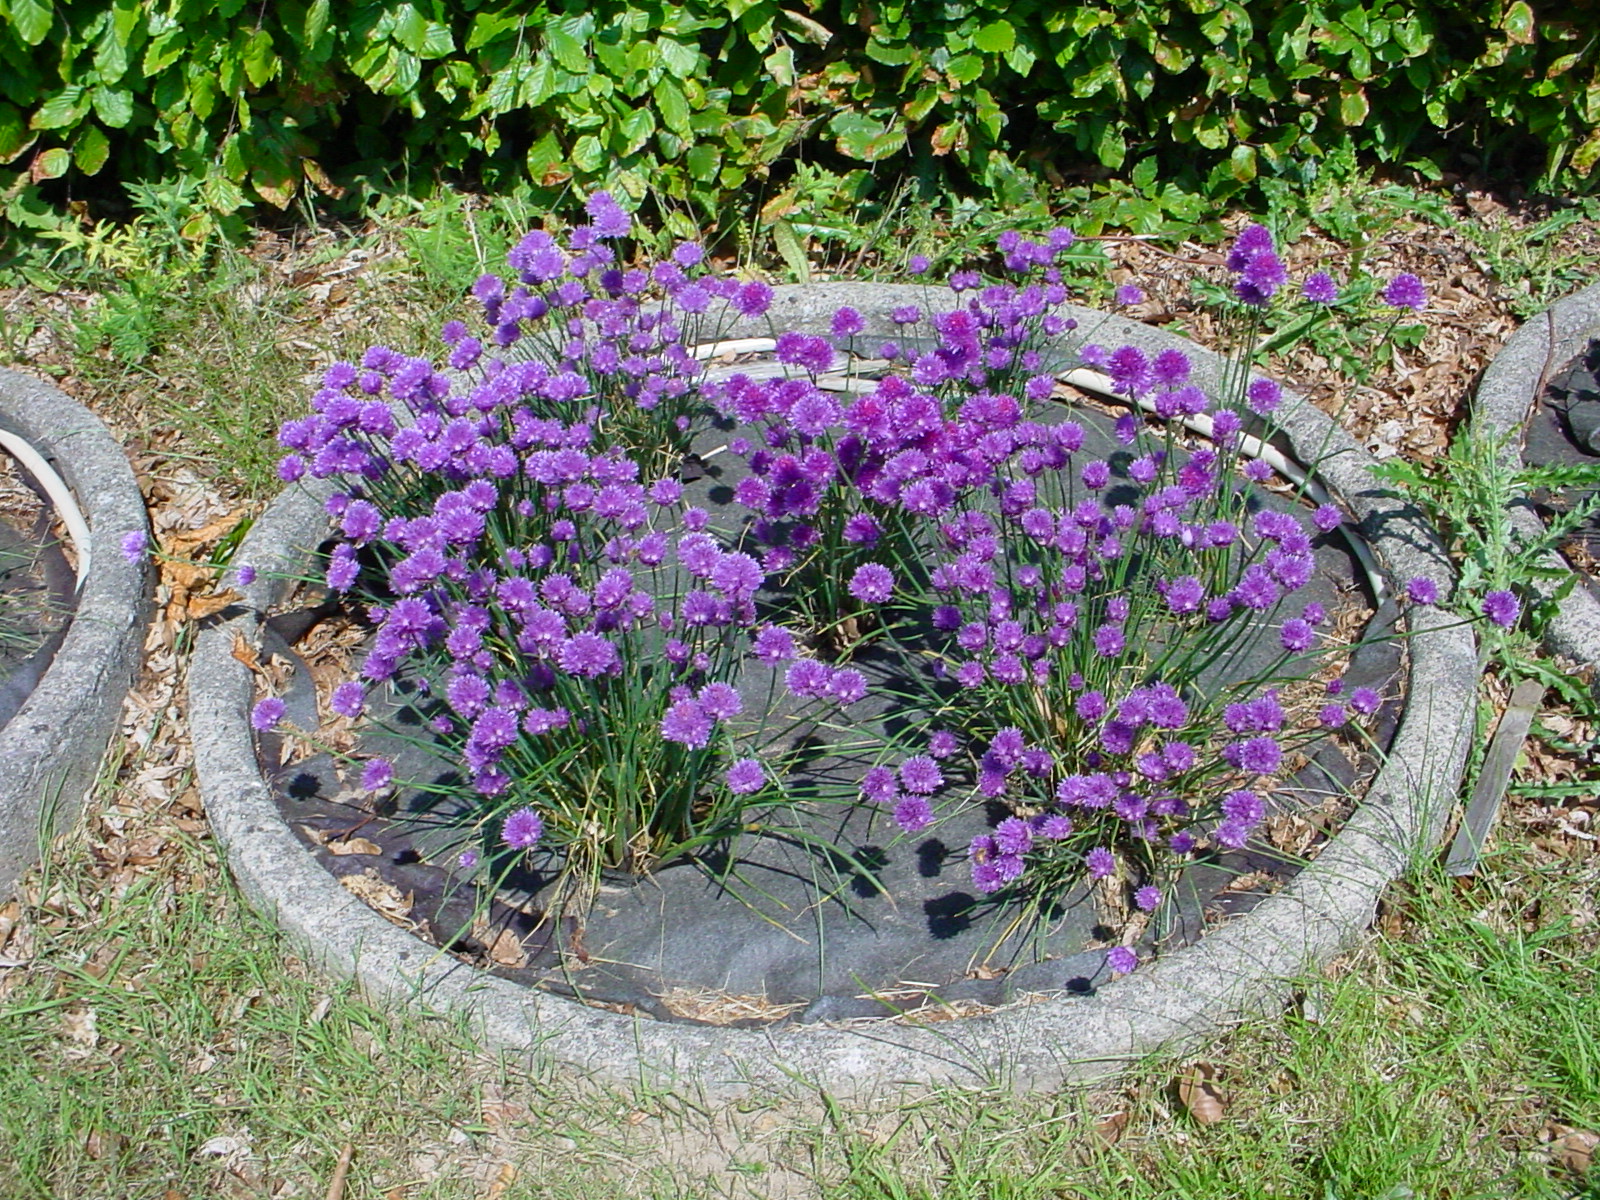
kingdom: Plantae
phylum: Tracheophyta
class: Liliopsida
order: Asparagales
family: Amaryllidaceae
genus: Allium
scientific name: Allium schoenoprasum
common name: Chives
